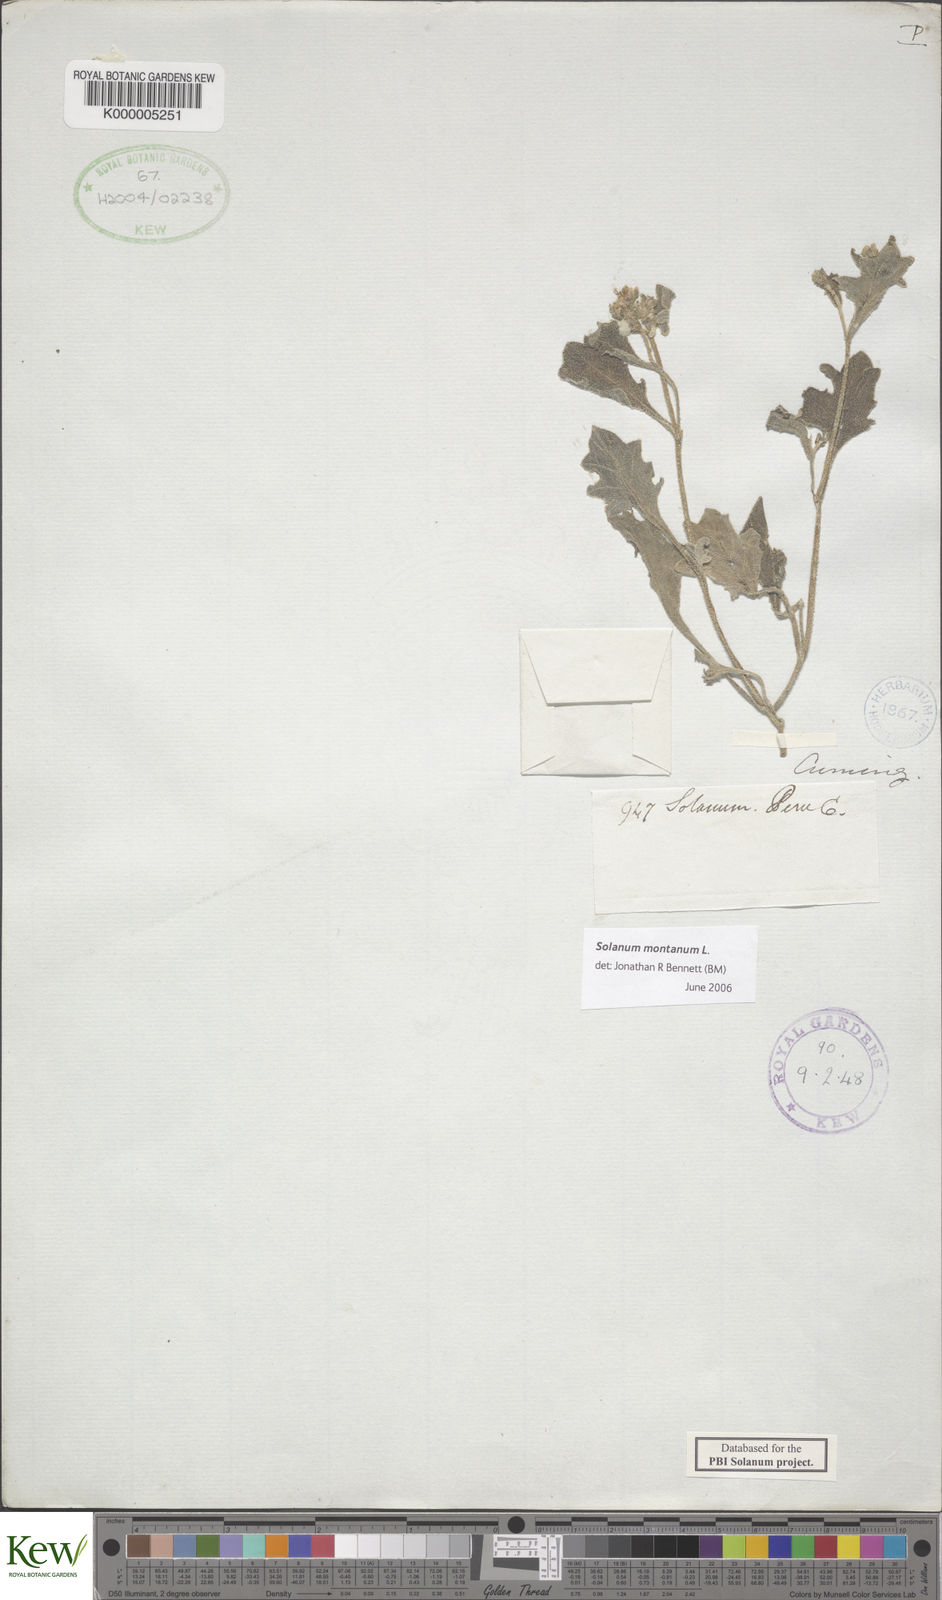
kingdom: Plantae
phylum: Tracheophyta
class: Magnoliopsida
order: Solanales
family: Solanaceae
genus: Solanum
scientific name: Solanum montanum
